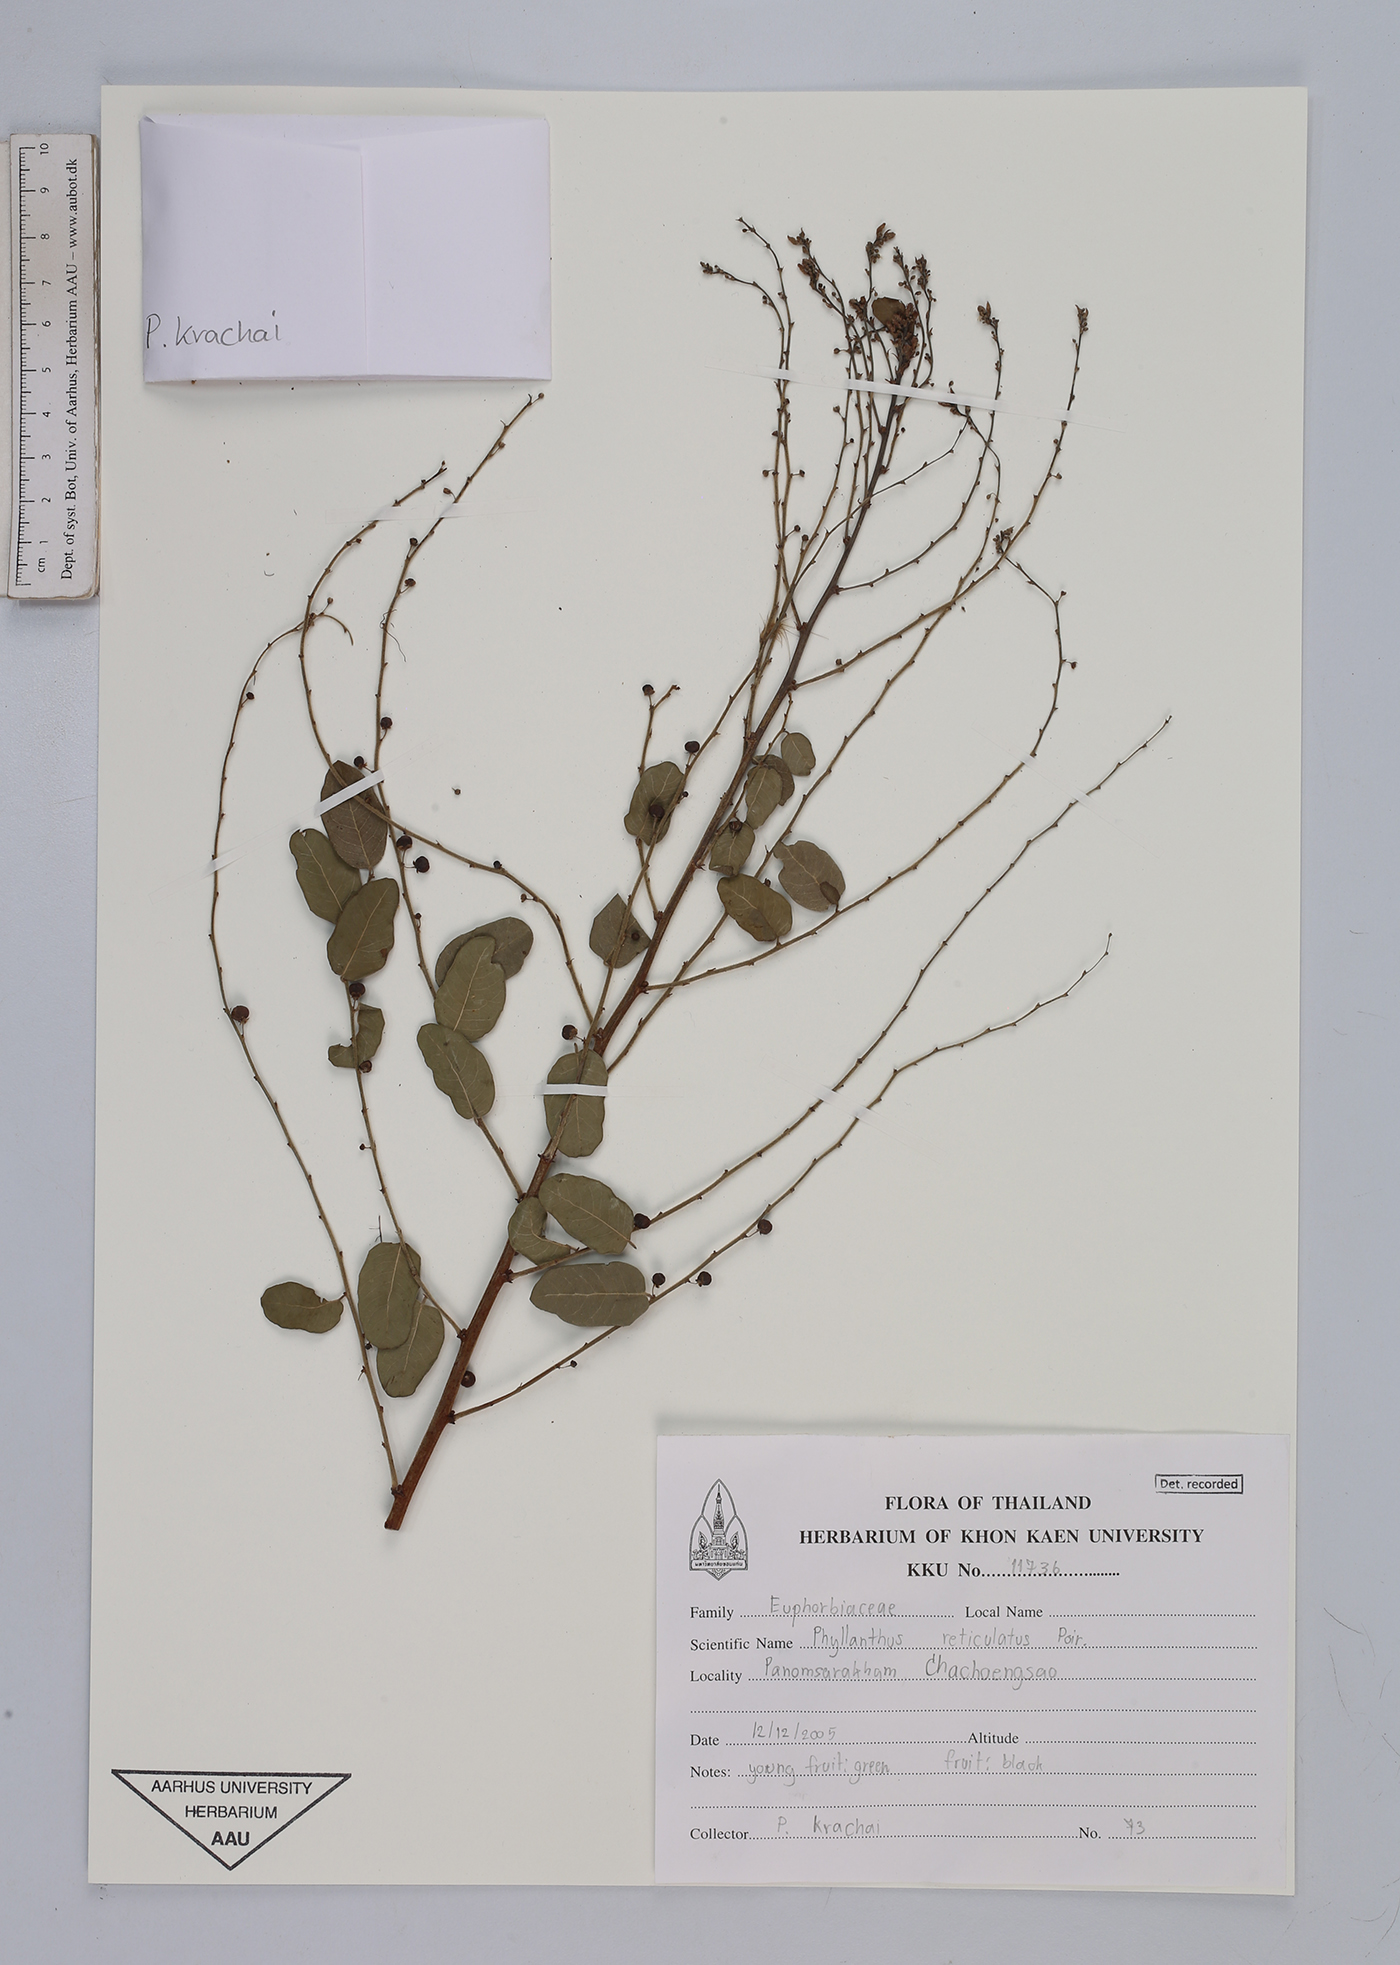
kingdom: Plantae
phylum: Tracheophyta
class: Magnoliopsida
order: Malpighiales
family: Phyllanthaceae
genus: Phyllanthus
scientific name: Phyllanthus reticulatus
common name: Potato bush
